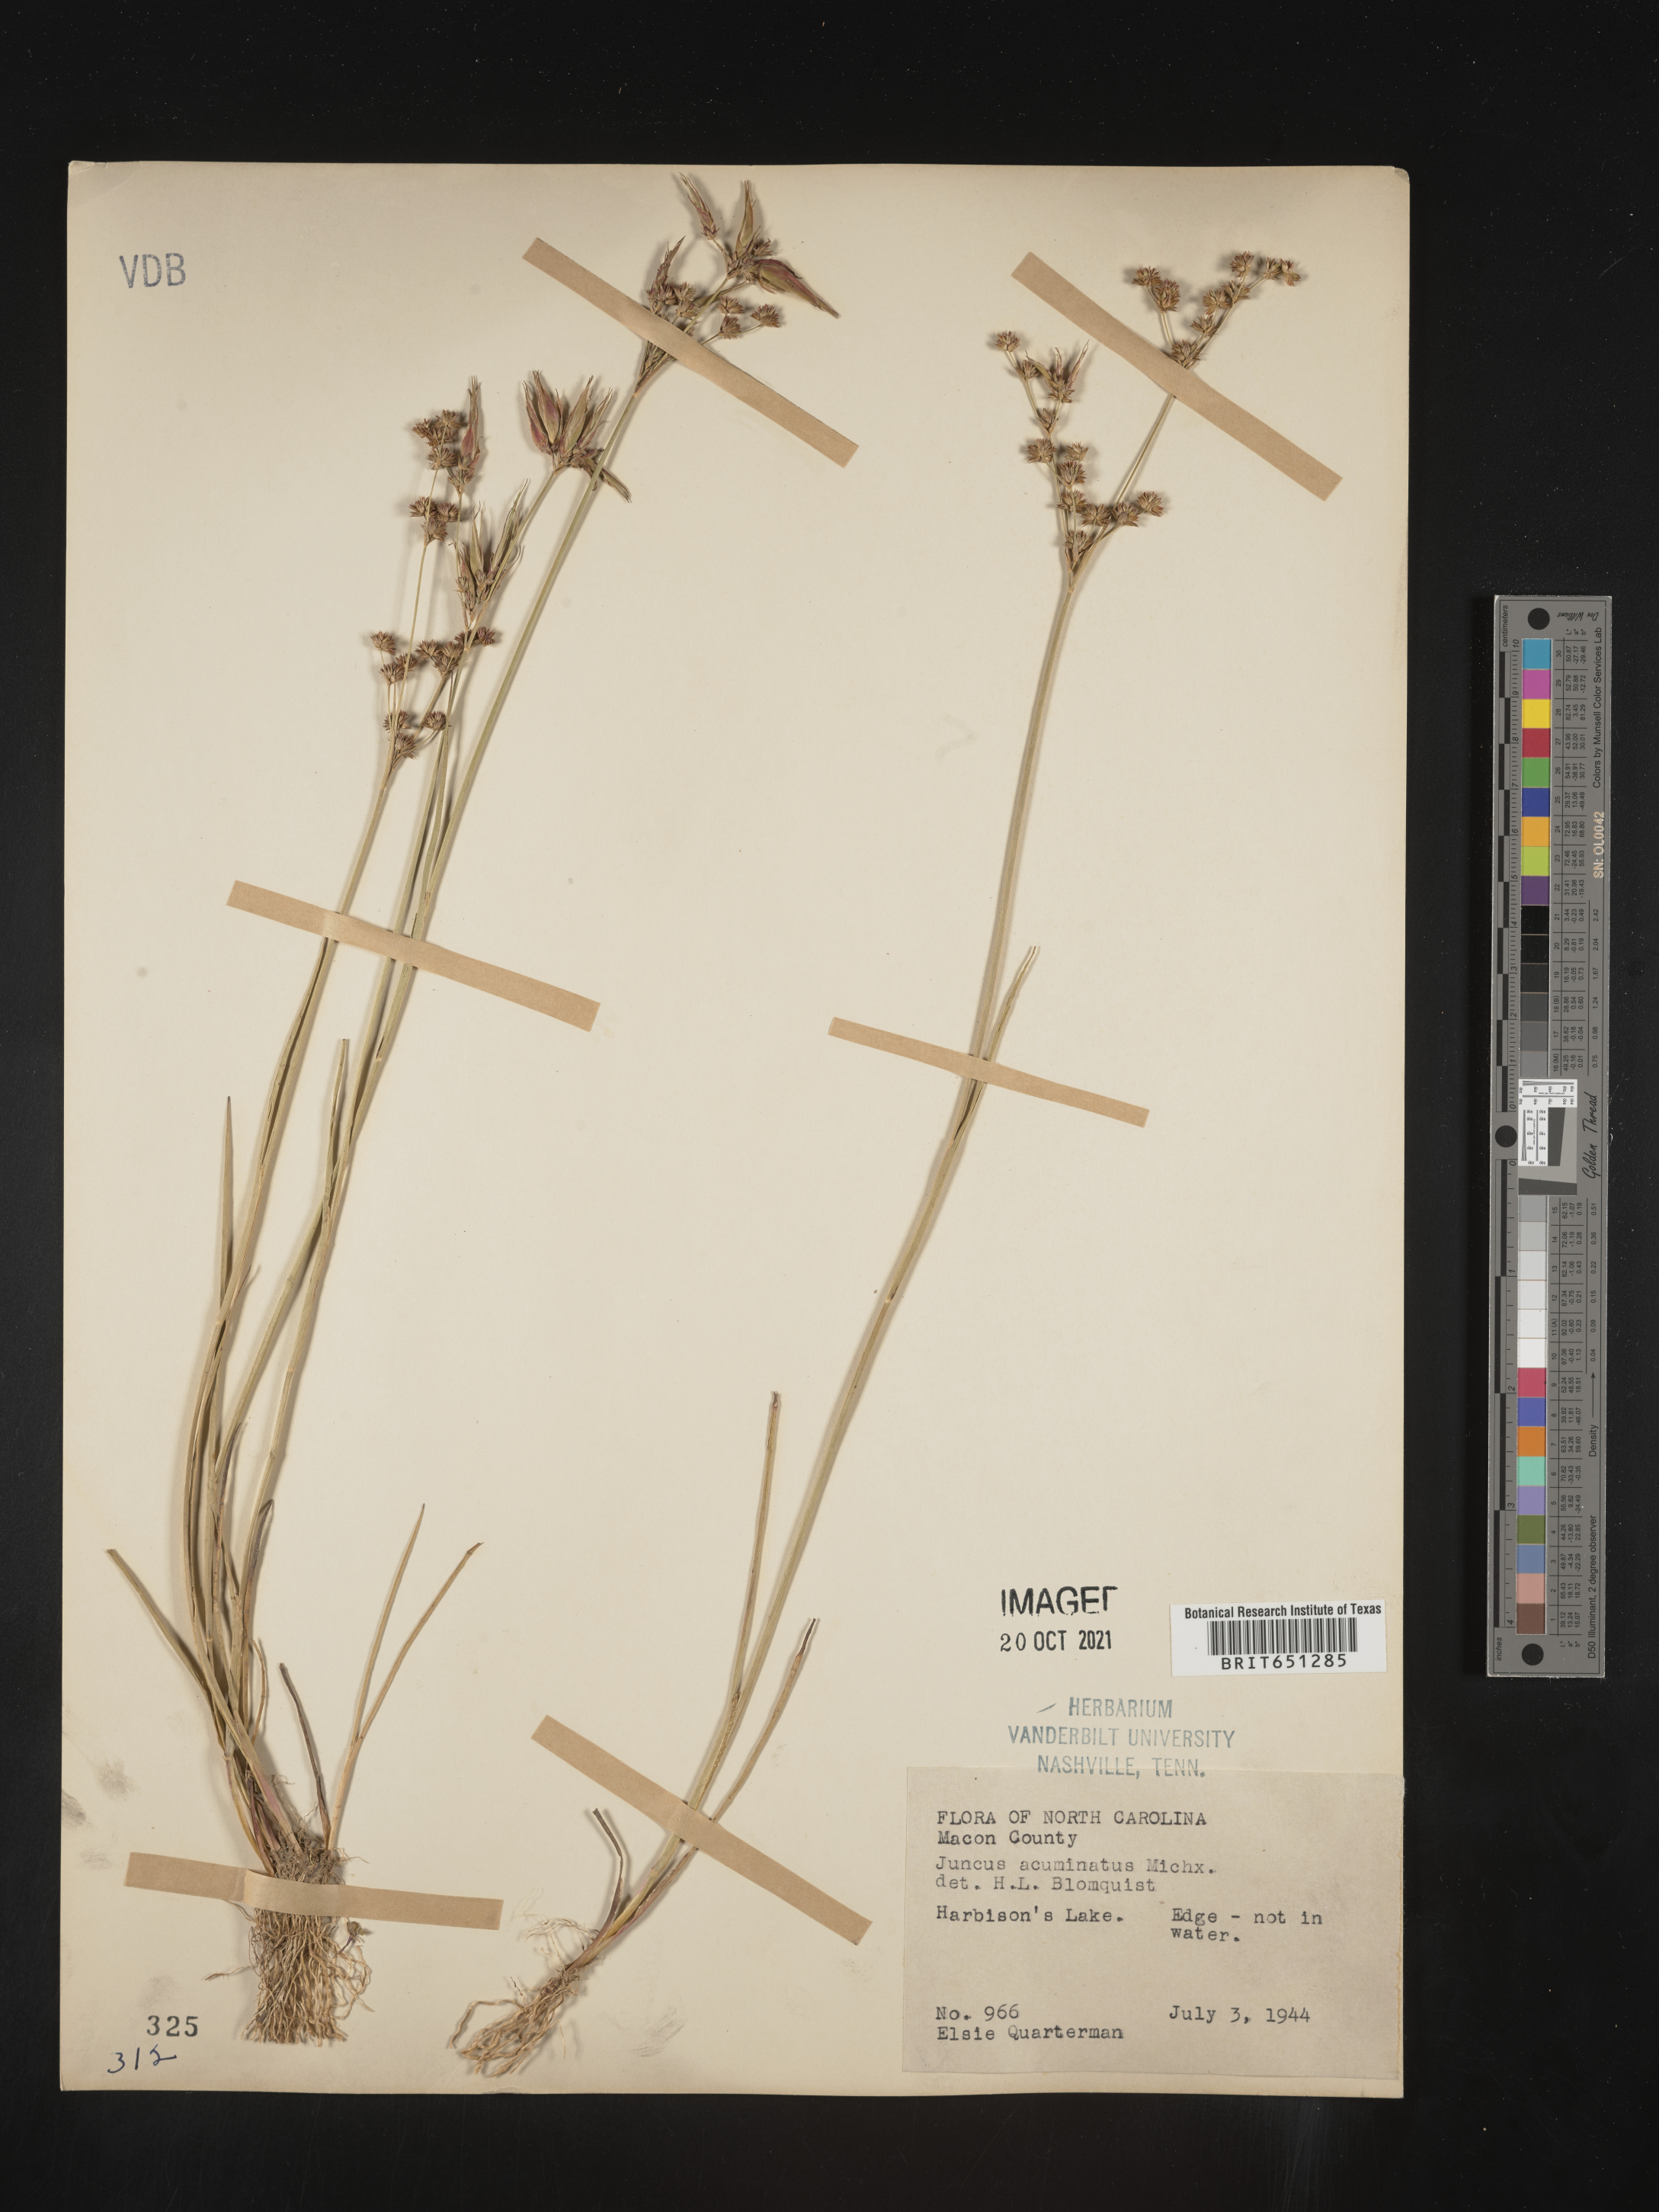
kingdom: Plantae
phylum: Tracheophyta
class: Liliopsida
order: Poales
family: Juncaceae
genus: Juncus
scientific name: Juncus acuminatus
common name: Knotty-leaved rush
